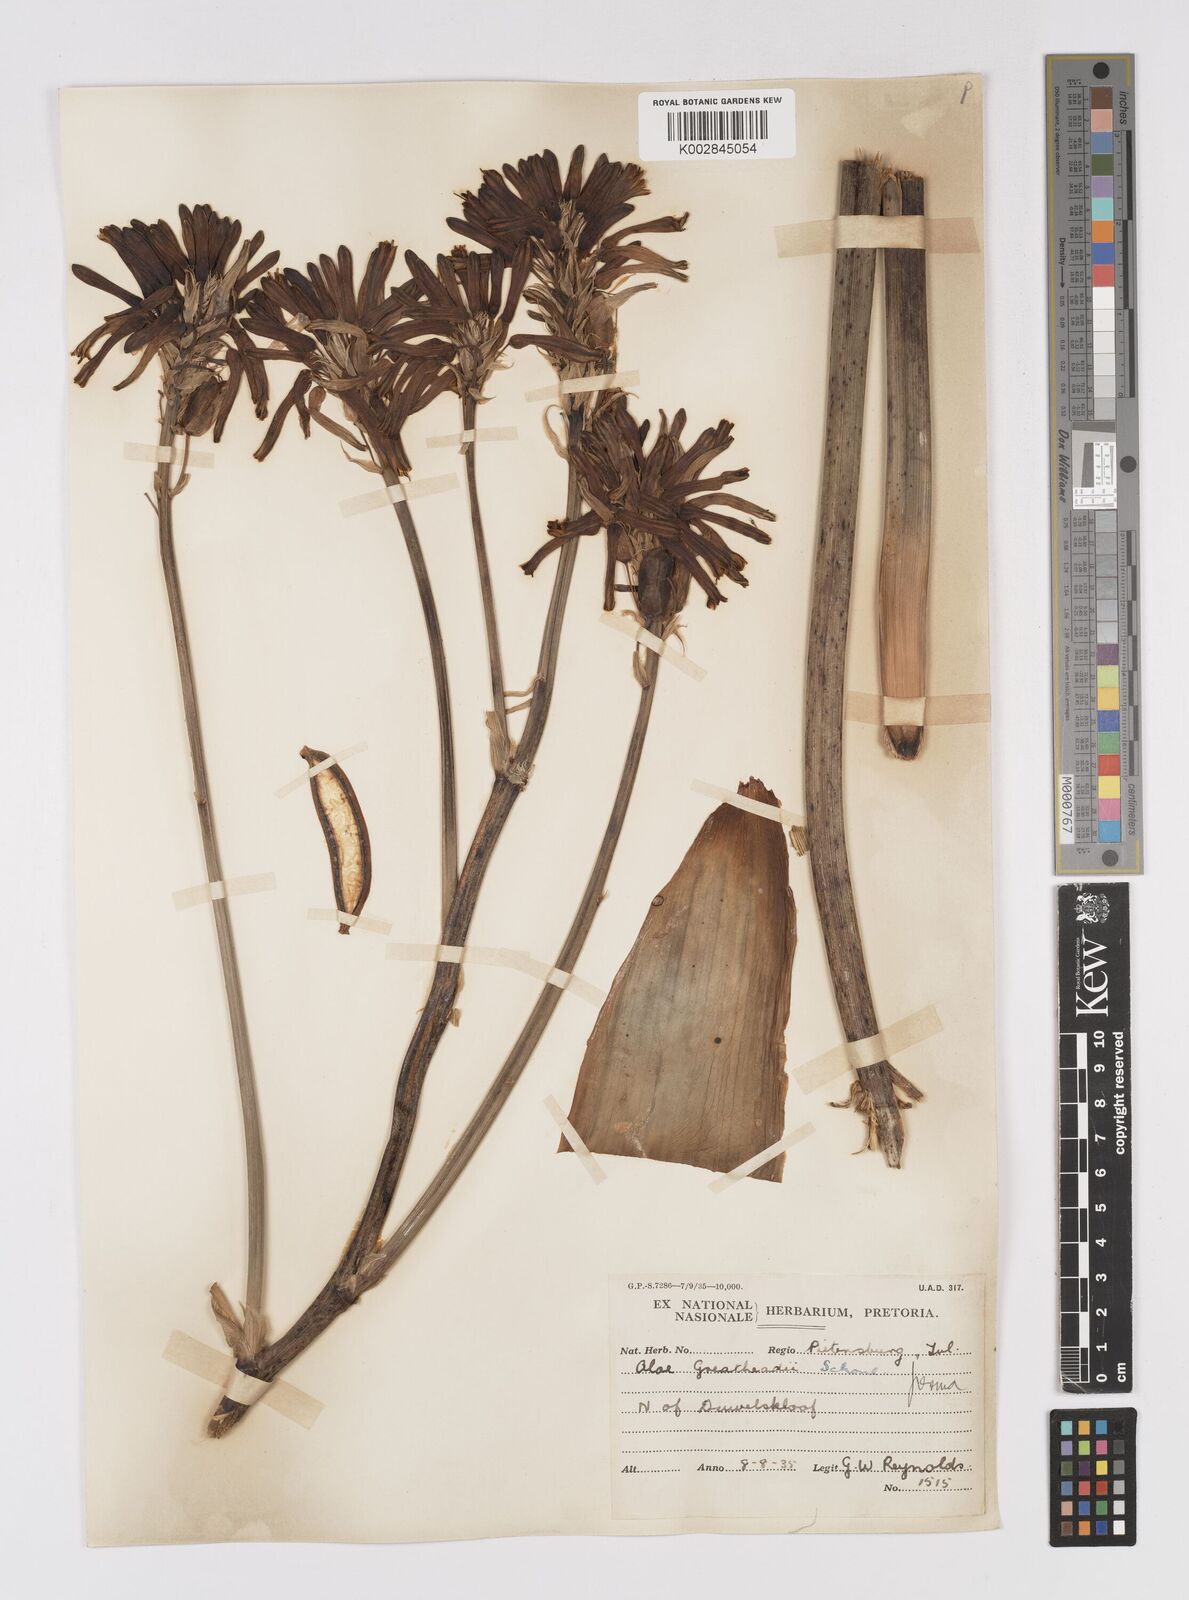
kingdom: Plantae
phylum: Tracheophyta
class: Liliopsida
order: Asparagales
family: Asphodelaceae
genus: Aloe
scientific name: Aloe greatheadii
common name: Greathead's aloe
